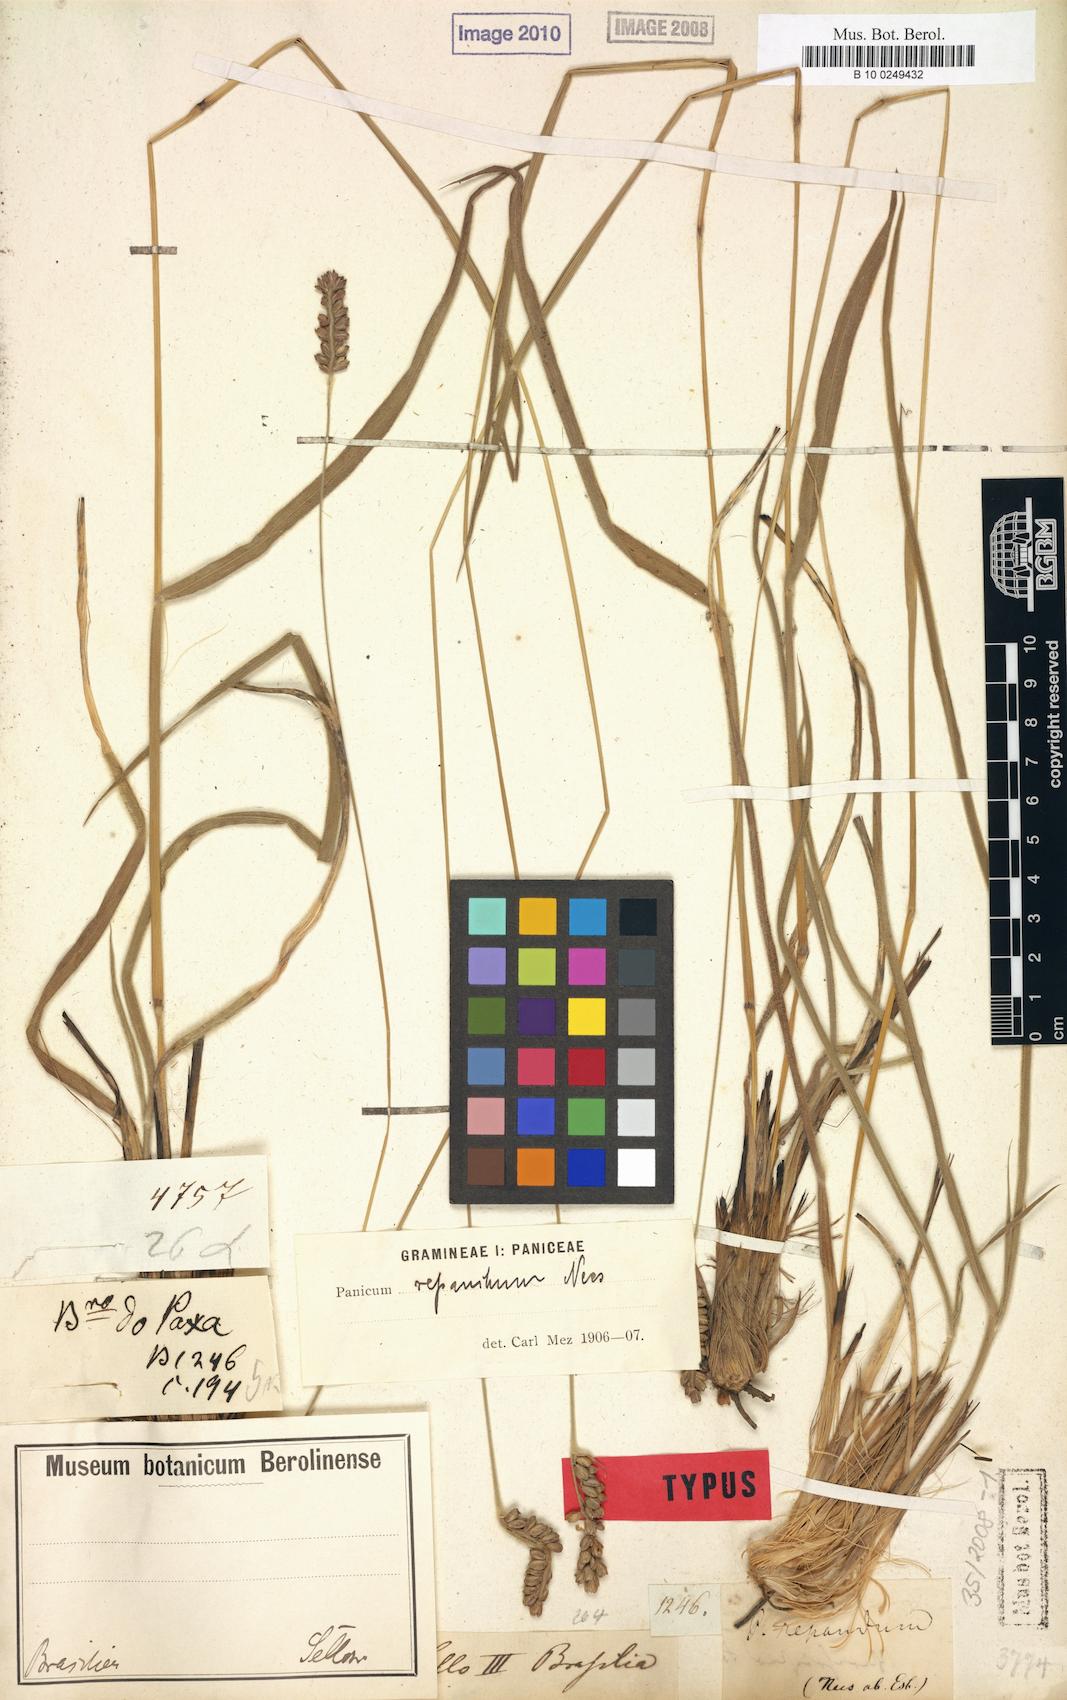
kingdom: Plantae
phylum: Tracheophyta
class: Liliopsida
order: Poales
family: Poaceae
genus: Paspalum
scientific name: Paspalum repandum
